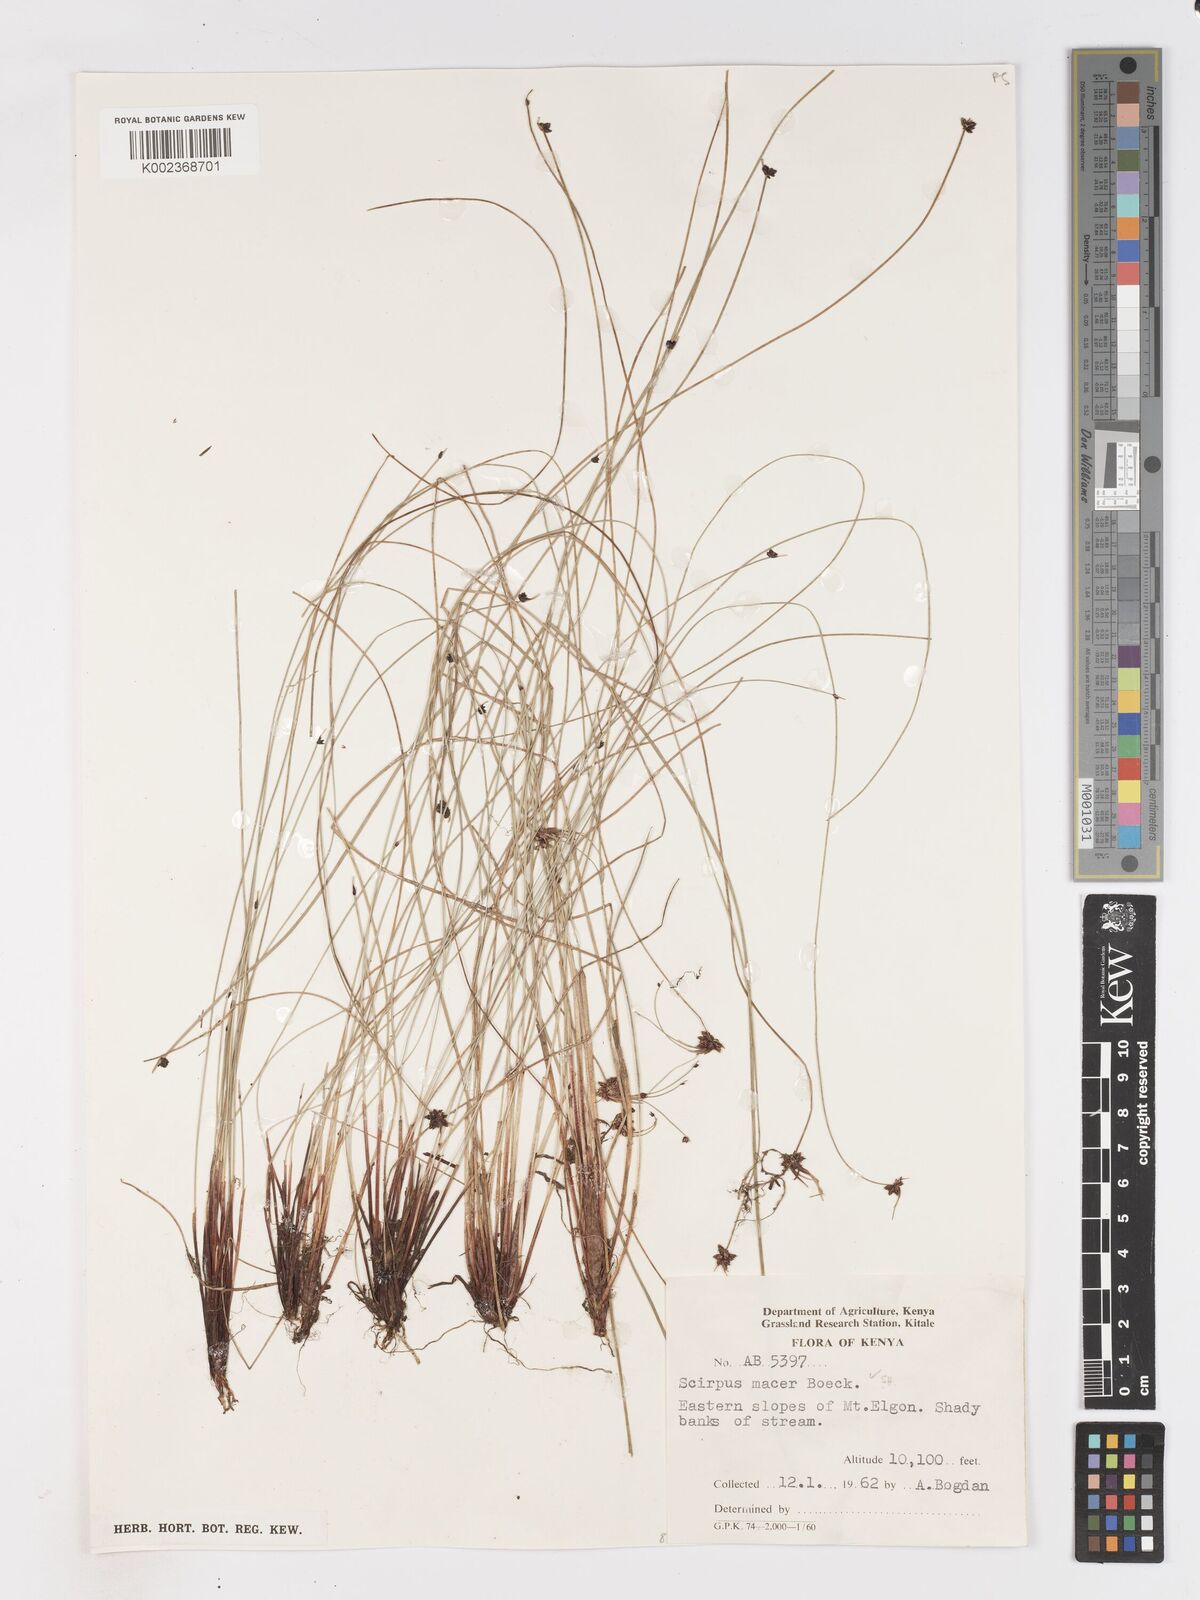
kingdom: Plantae
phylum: Tracheophyta
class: Liliopsida
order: Poales
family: Cyperaceae
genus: Isolepis
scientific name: Isolepis costata
